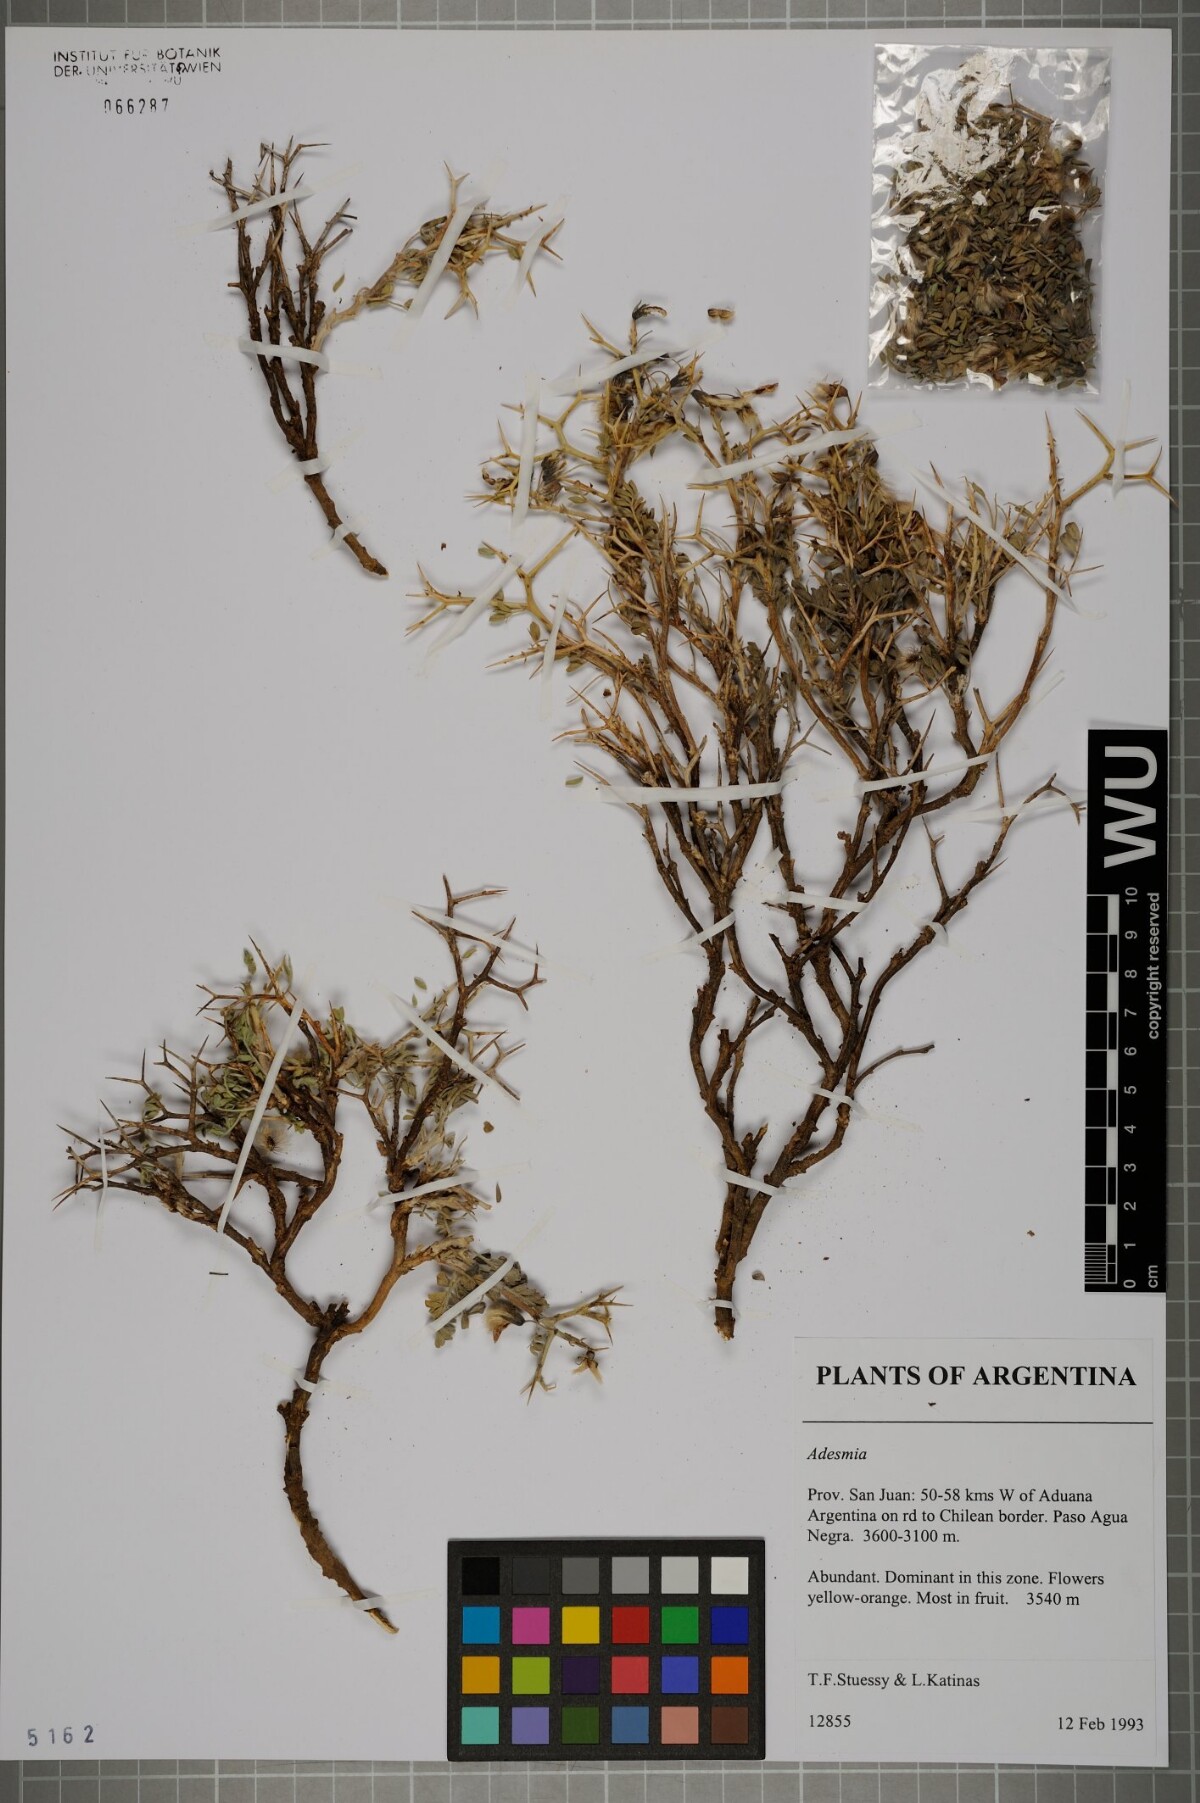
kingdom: Plantae
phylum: Tracheophyta
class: Magnoliopsida
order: Fabales
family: Fabaceae
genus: Adesmia
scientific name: Adesmia
